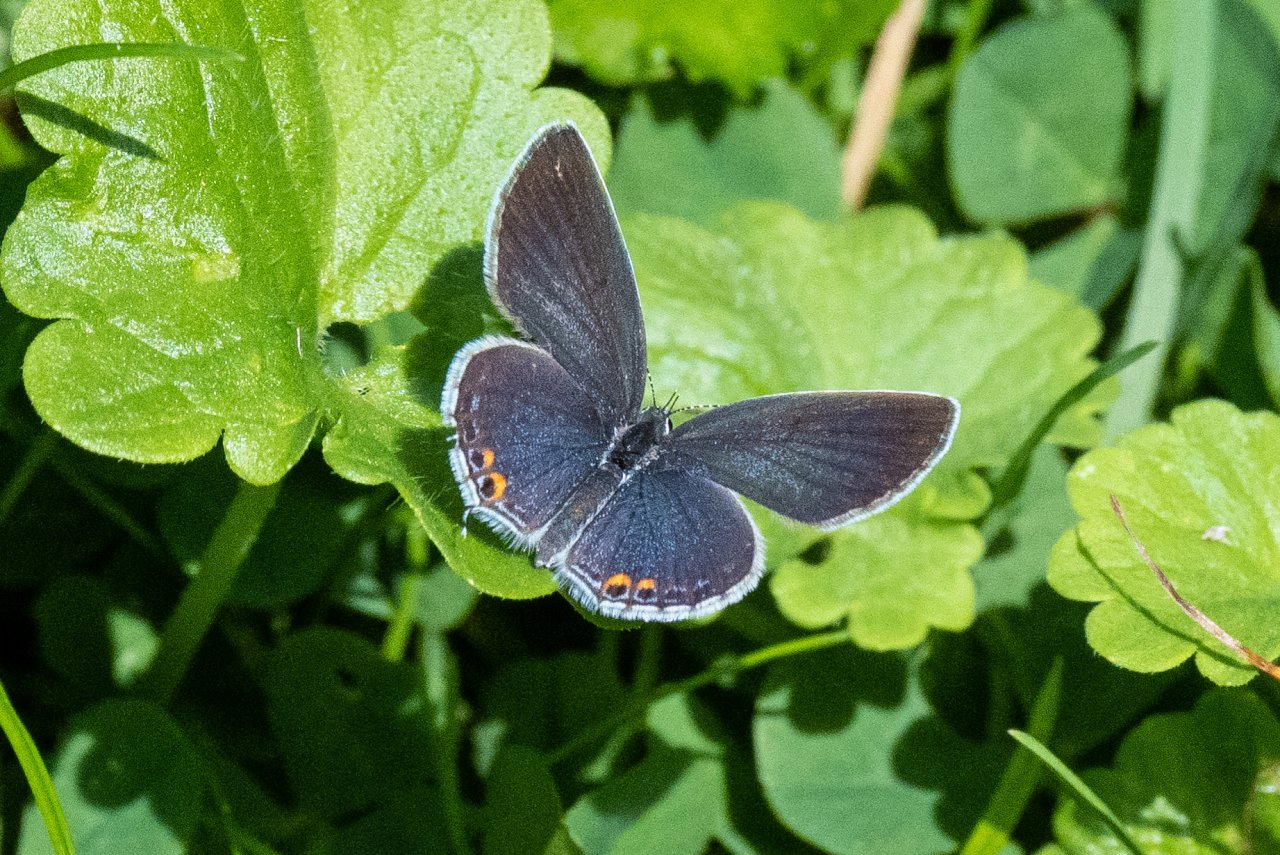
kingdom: Animalia
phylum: Arthropoda
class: Insecta
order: Lepidoptera
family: Lycaenidae
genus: Elkalyce
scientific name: Elkalyce comyntas
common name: Eastern Tailed-Blue
